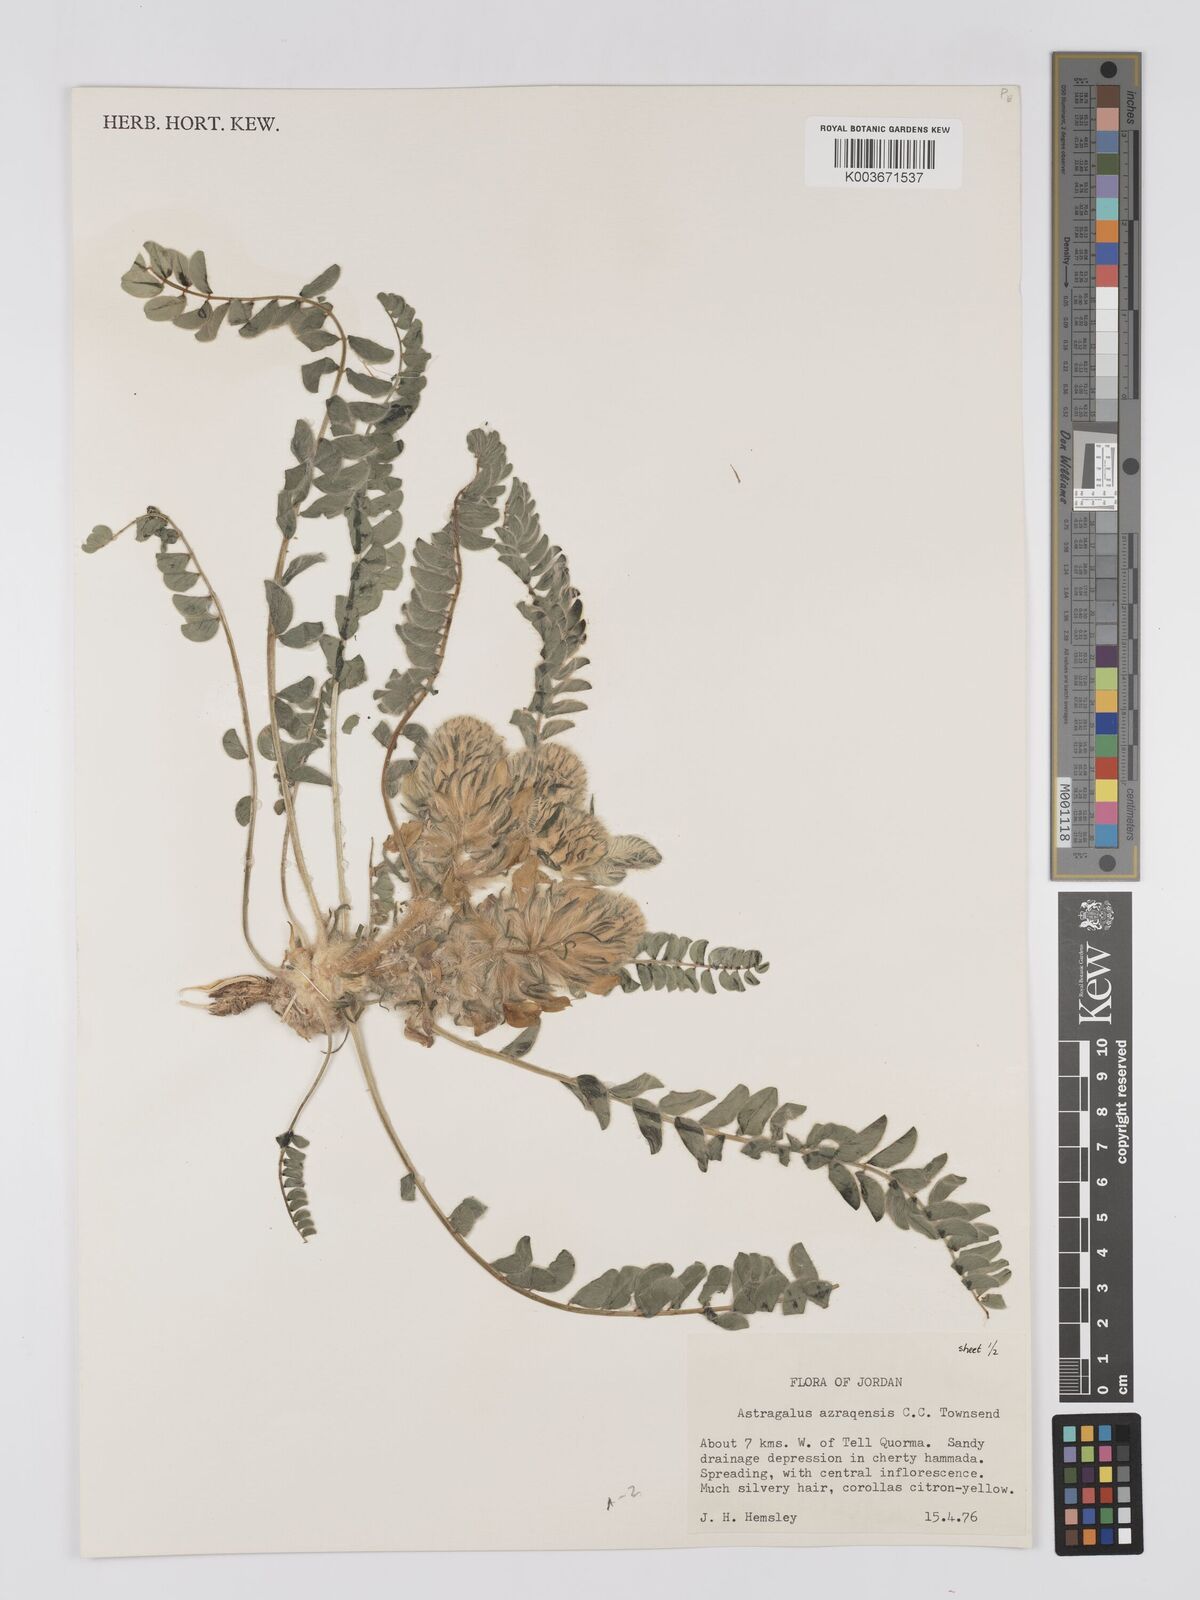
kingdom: Plantae
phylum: Tracheophyta
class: Magnoliopsida
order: Fabales
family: Fabaceae
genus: Astragalus
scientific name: Astragalus azraqensis
